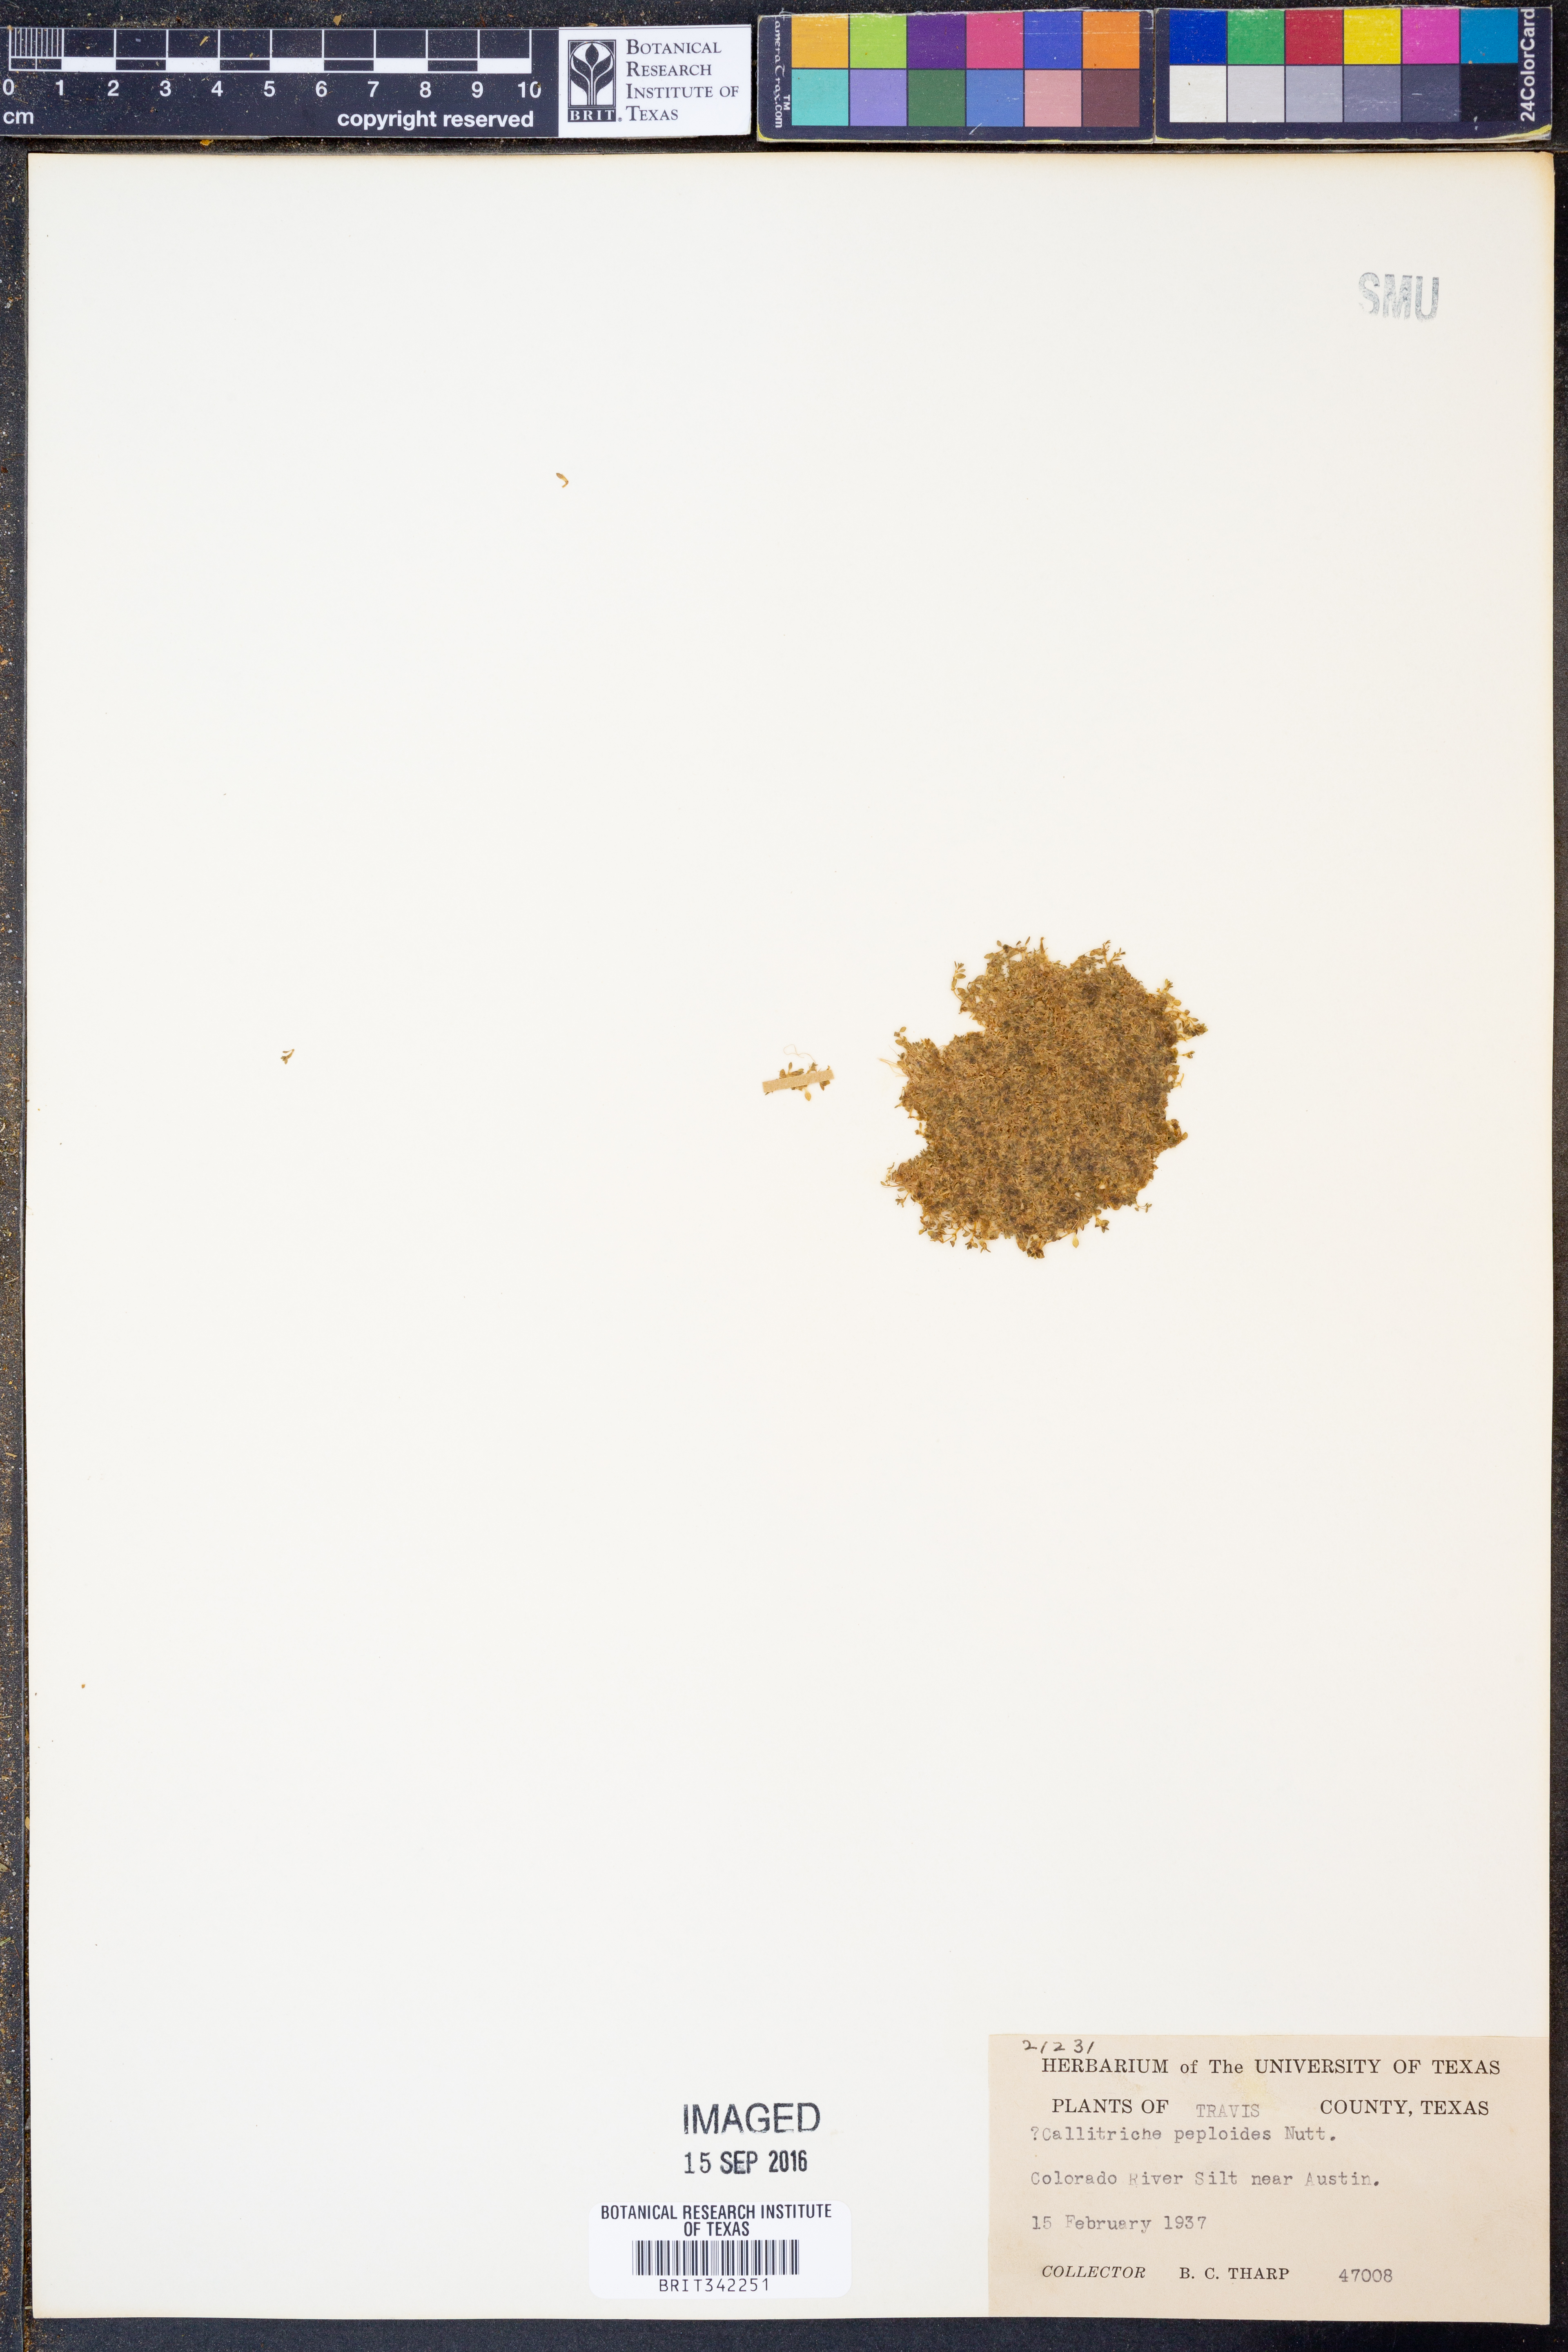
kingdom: Plantae
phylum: Tracheophyta
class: Magnoliopsida
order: Lamiales
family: Plantaginaceae
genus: Callitriche
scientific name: Callitriche peploides
